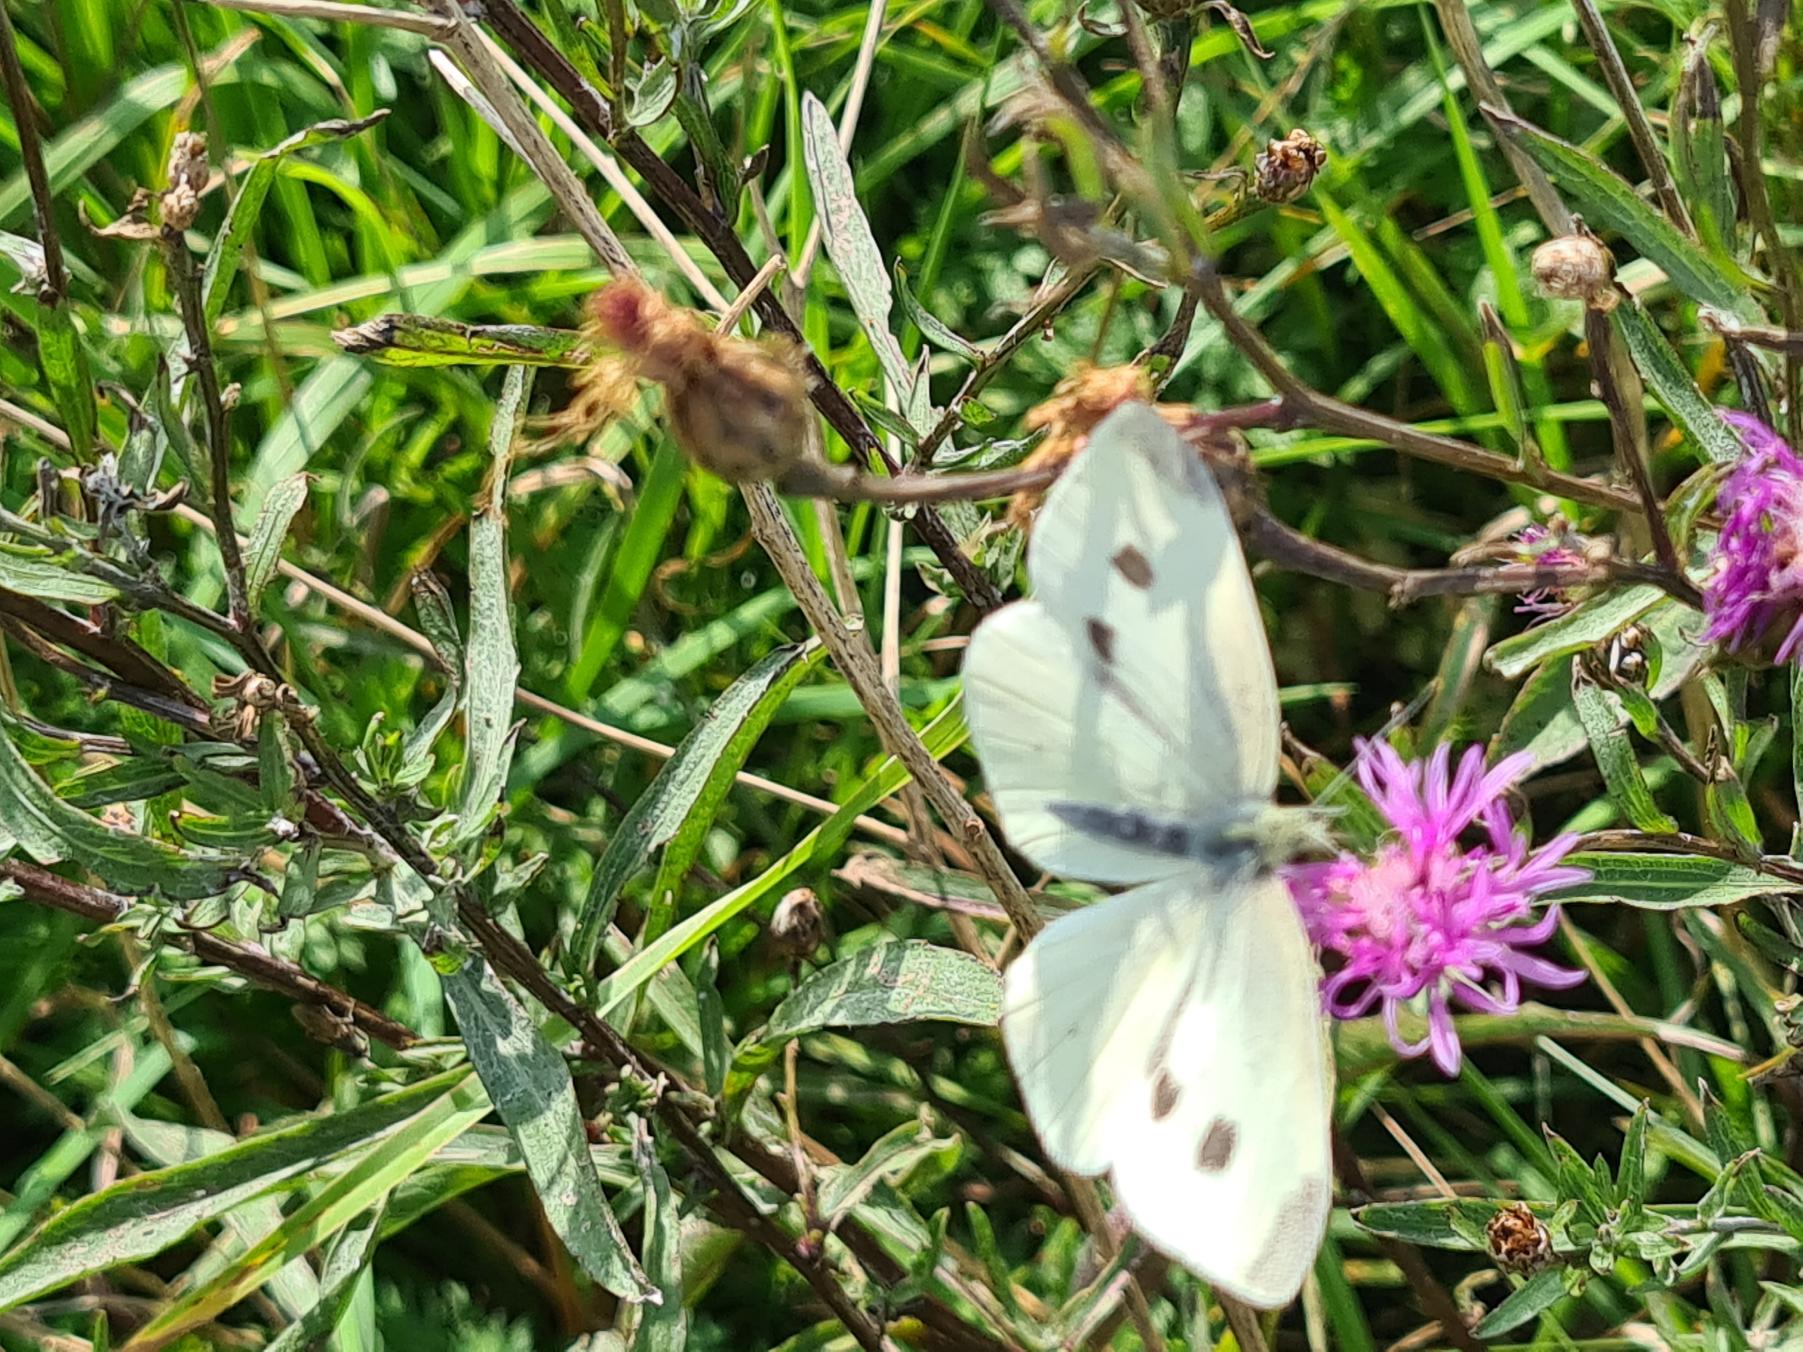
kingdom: Animalia
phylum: Arthropoda
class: Insecta
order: Lepidoptera
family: Pieridae
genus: Pieris
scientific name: Pieris rapae
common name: Lille kålsommerfugl
